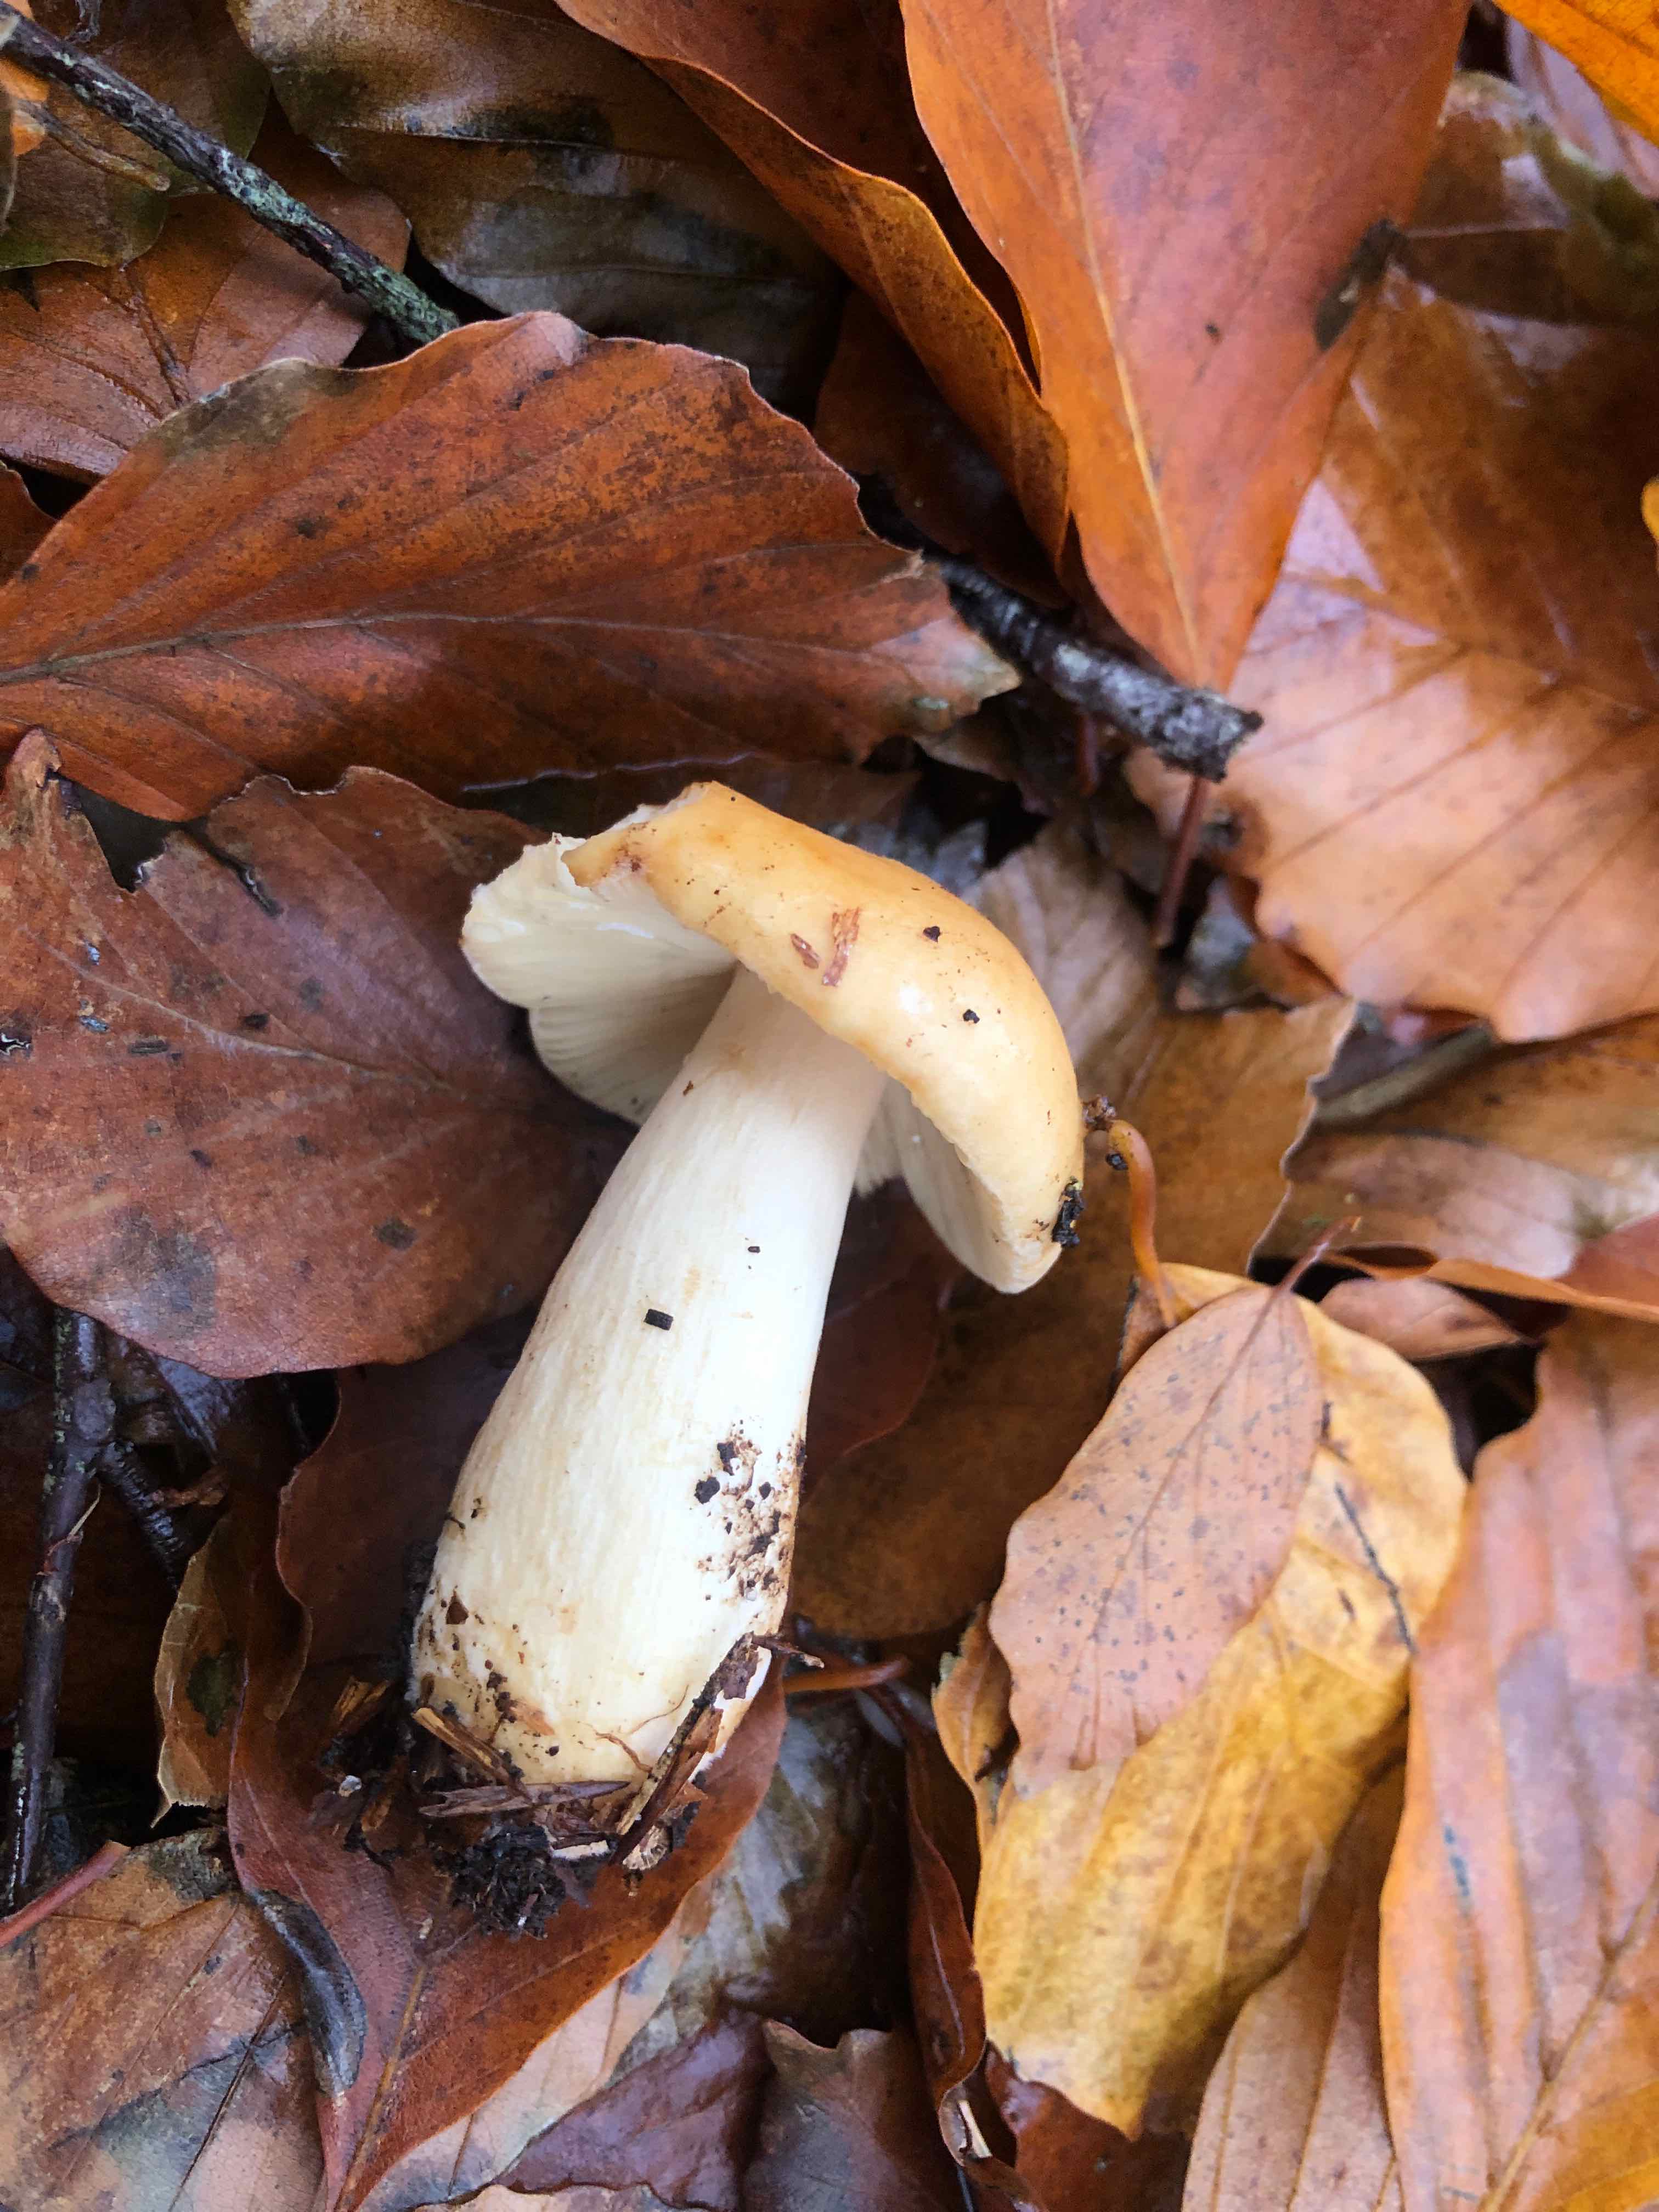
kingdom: Fungi
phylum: Basidiomycota
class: Agaricomycetes
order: Russulales
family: Russulaceae
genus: Russula
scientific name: Russula fellea
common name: galde-skørhat
